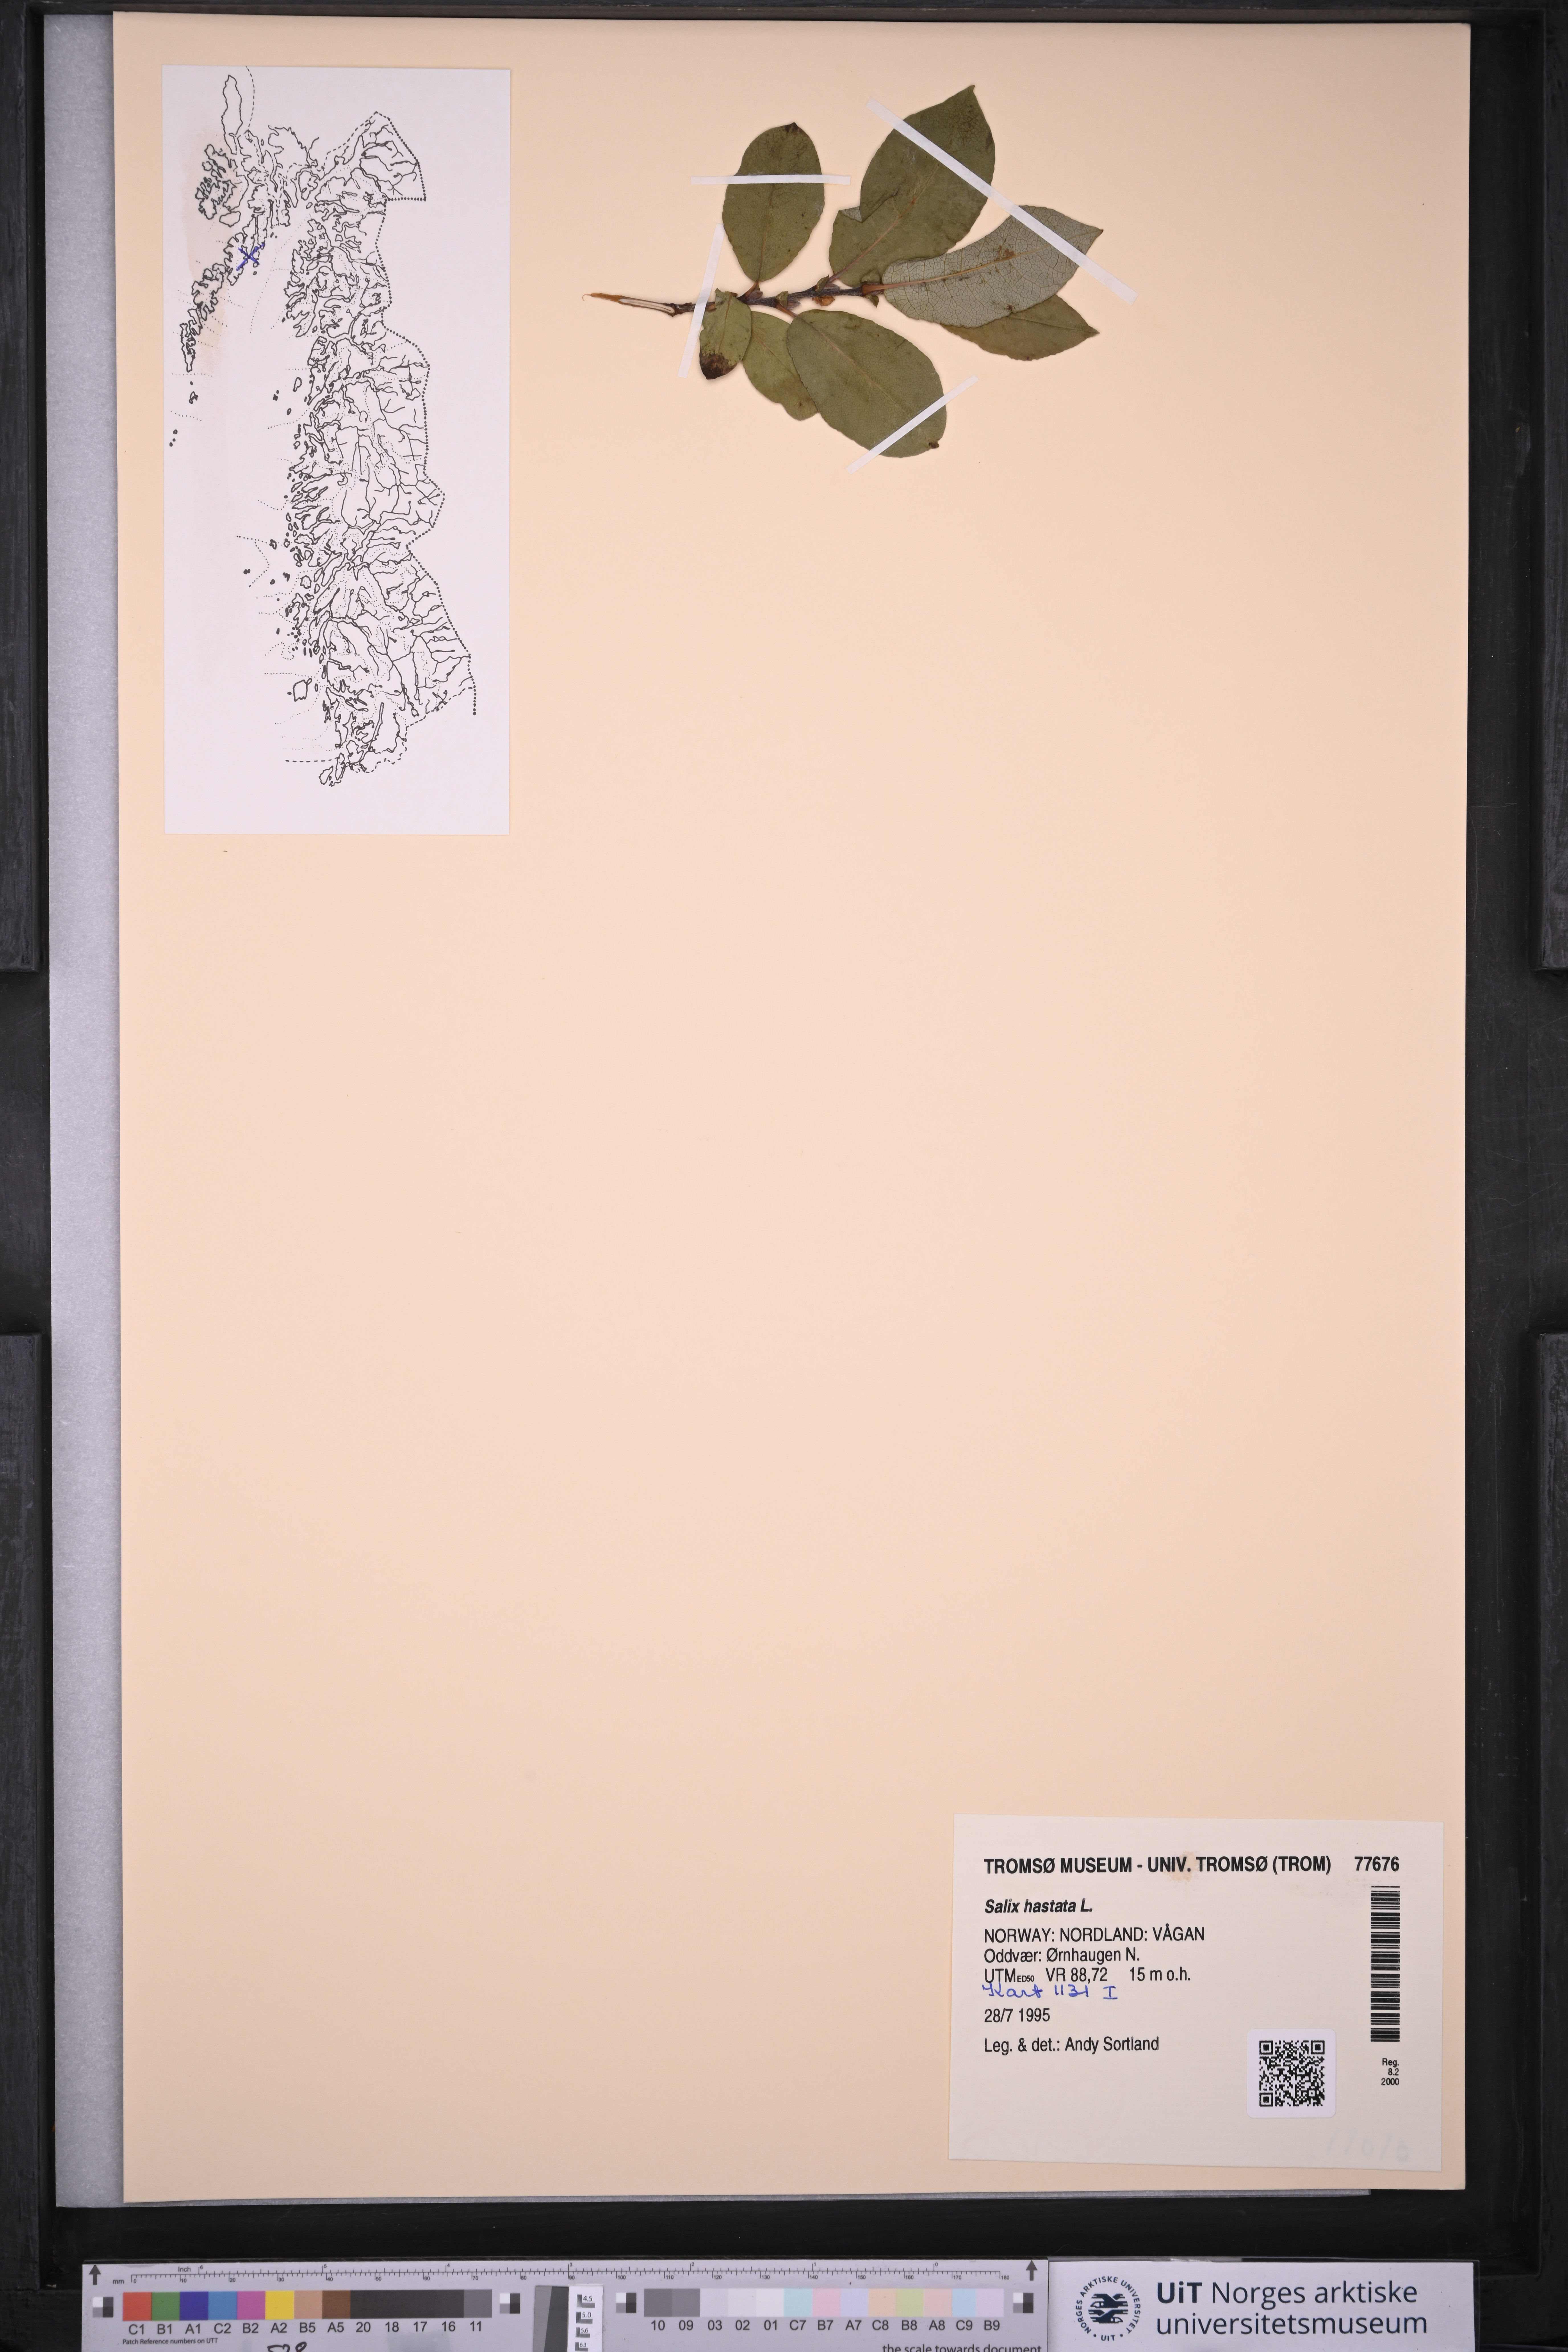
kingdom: Plantae
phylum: Tracheophyta
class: Magnoliopsida
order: Malpighiales
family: Salicaceae
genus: Salix
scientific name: Salix hastata
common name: Halberd willow
